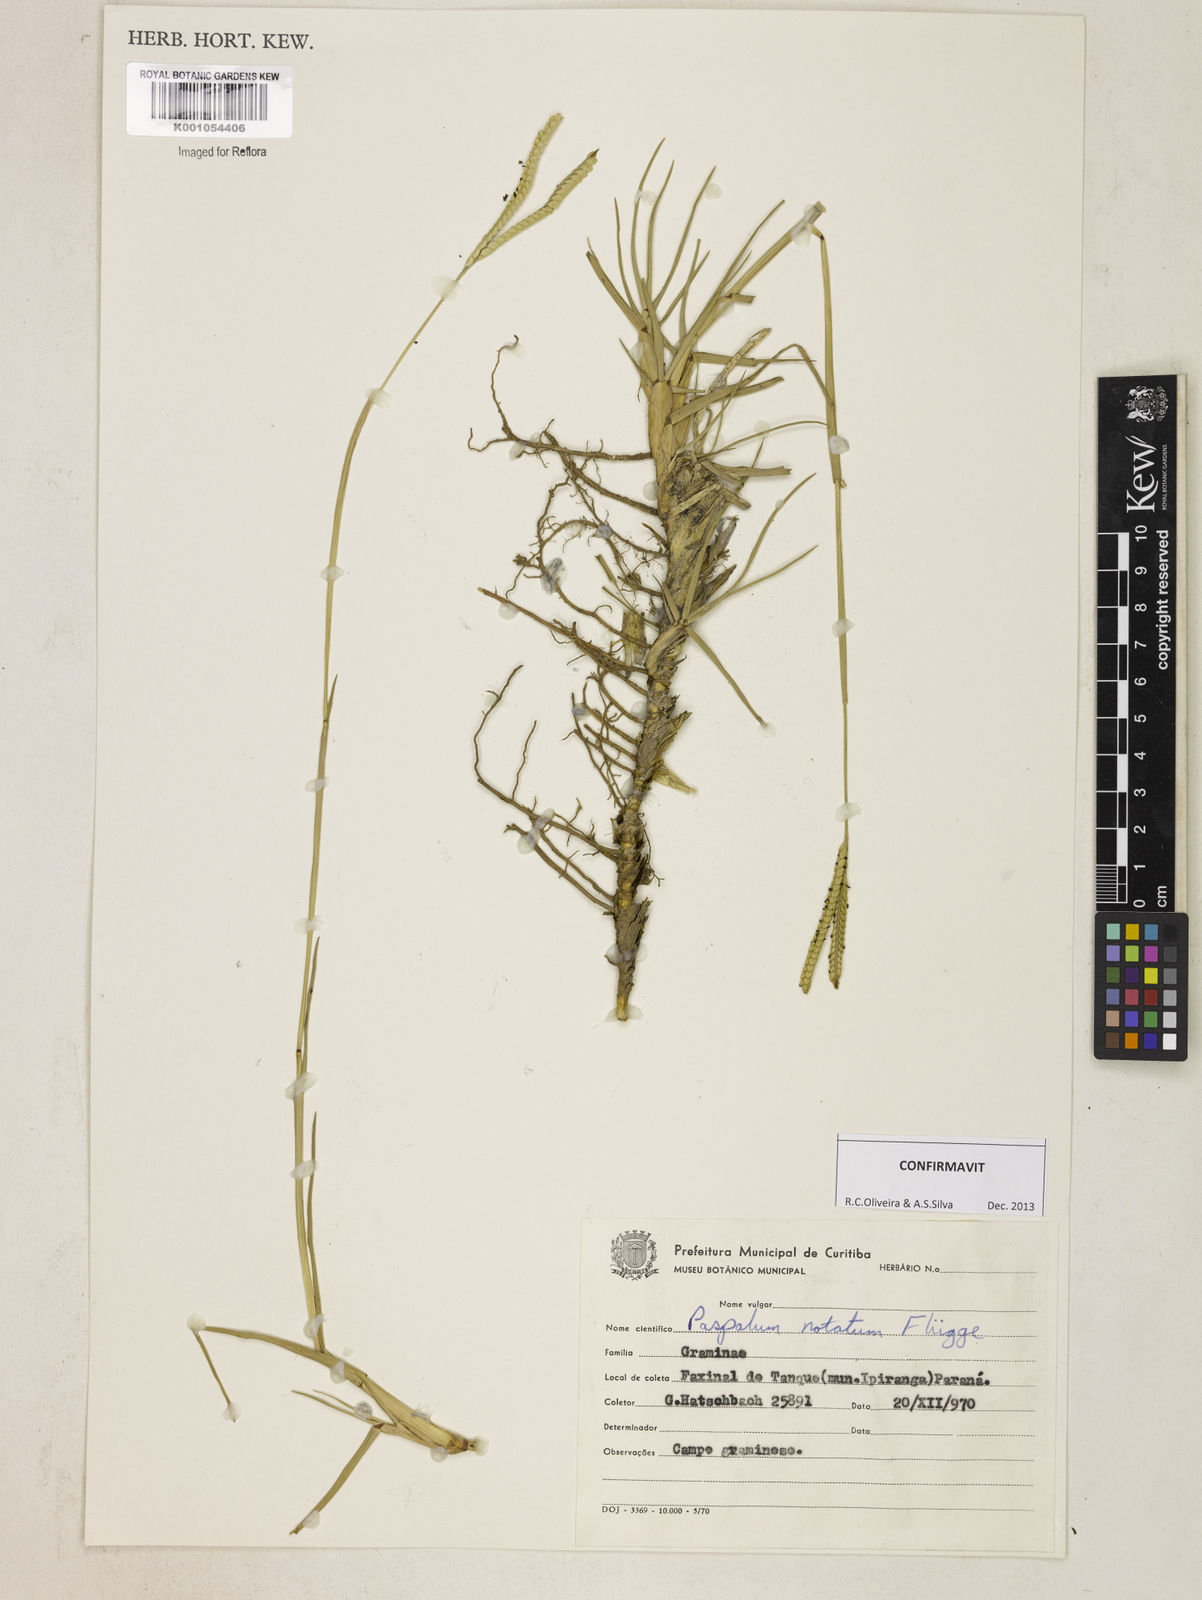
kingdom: Plantae
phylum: Tracheophyta
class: Liliopsida
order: Poales
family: Poaceae
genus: Paspalum
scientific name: Paspalum
